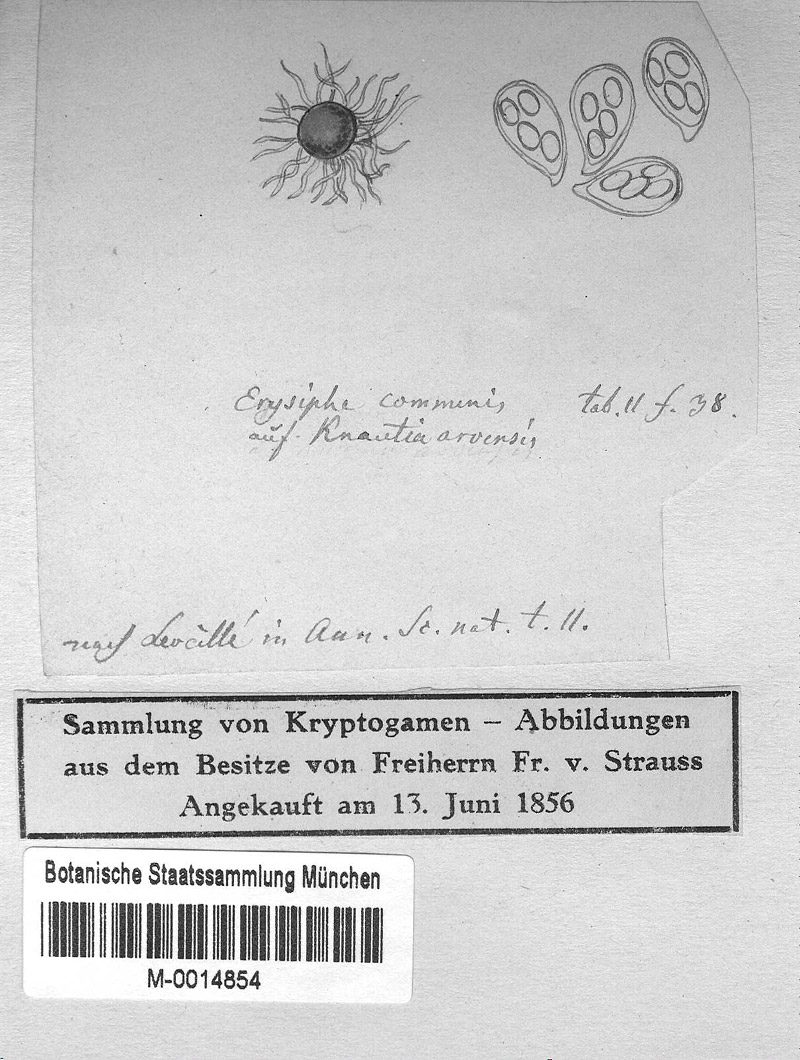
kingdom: Fungi
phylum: Ascomycota
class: Leotiomycetes
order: Helotiales
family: Erysiphaceae
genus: Erysiphe
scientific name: Erysiphe knautiae
